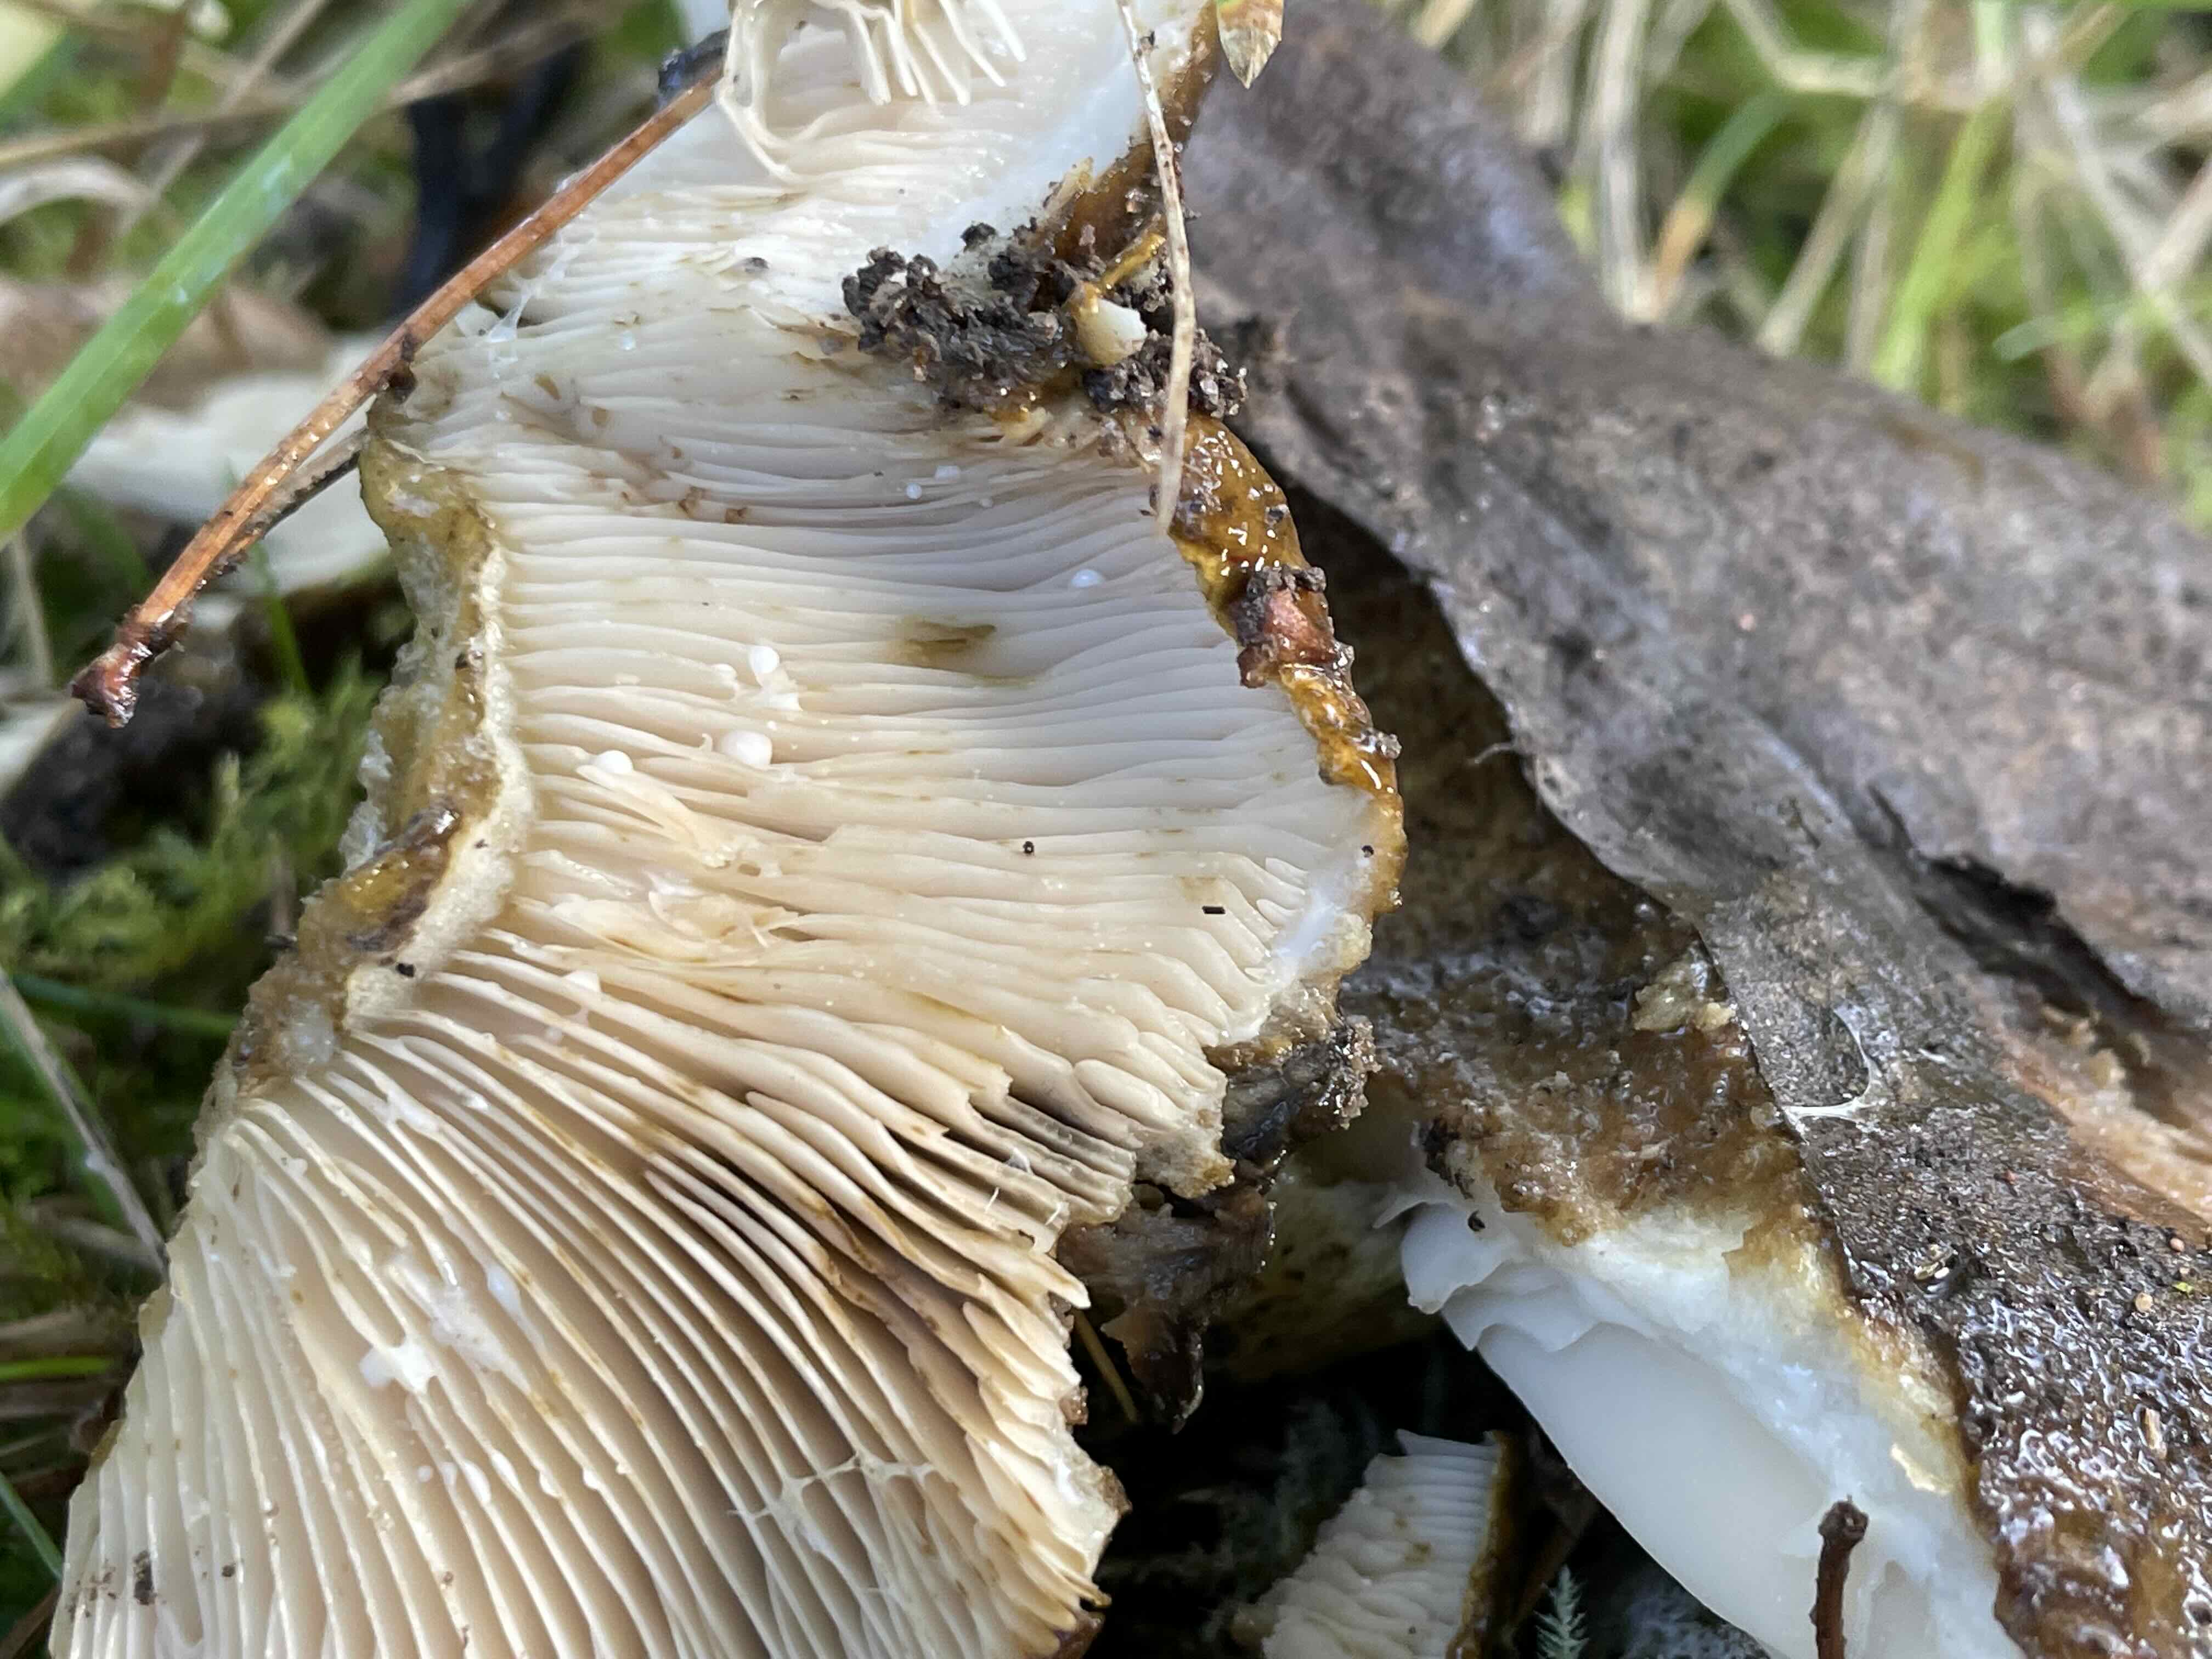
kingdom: Fungi
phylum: Basidiomycota
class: Agaricomycetes
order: Russulales
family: Russulaceae
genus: Lactarius
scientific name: Lactarius necator
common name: manddraber-mælkehat
